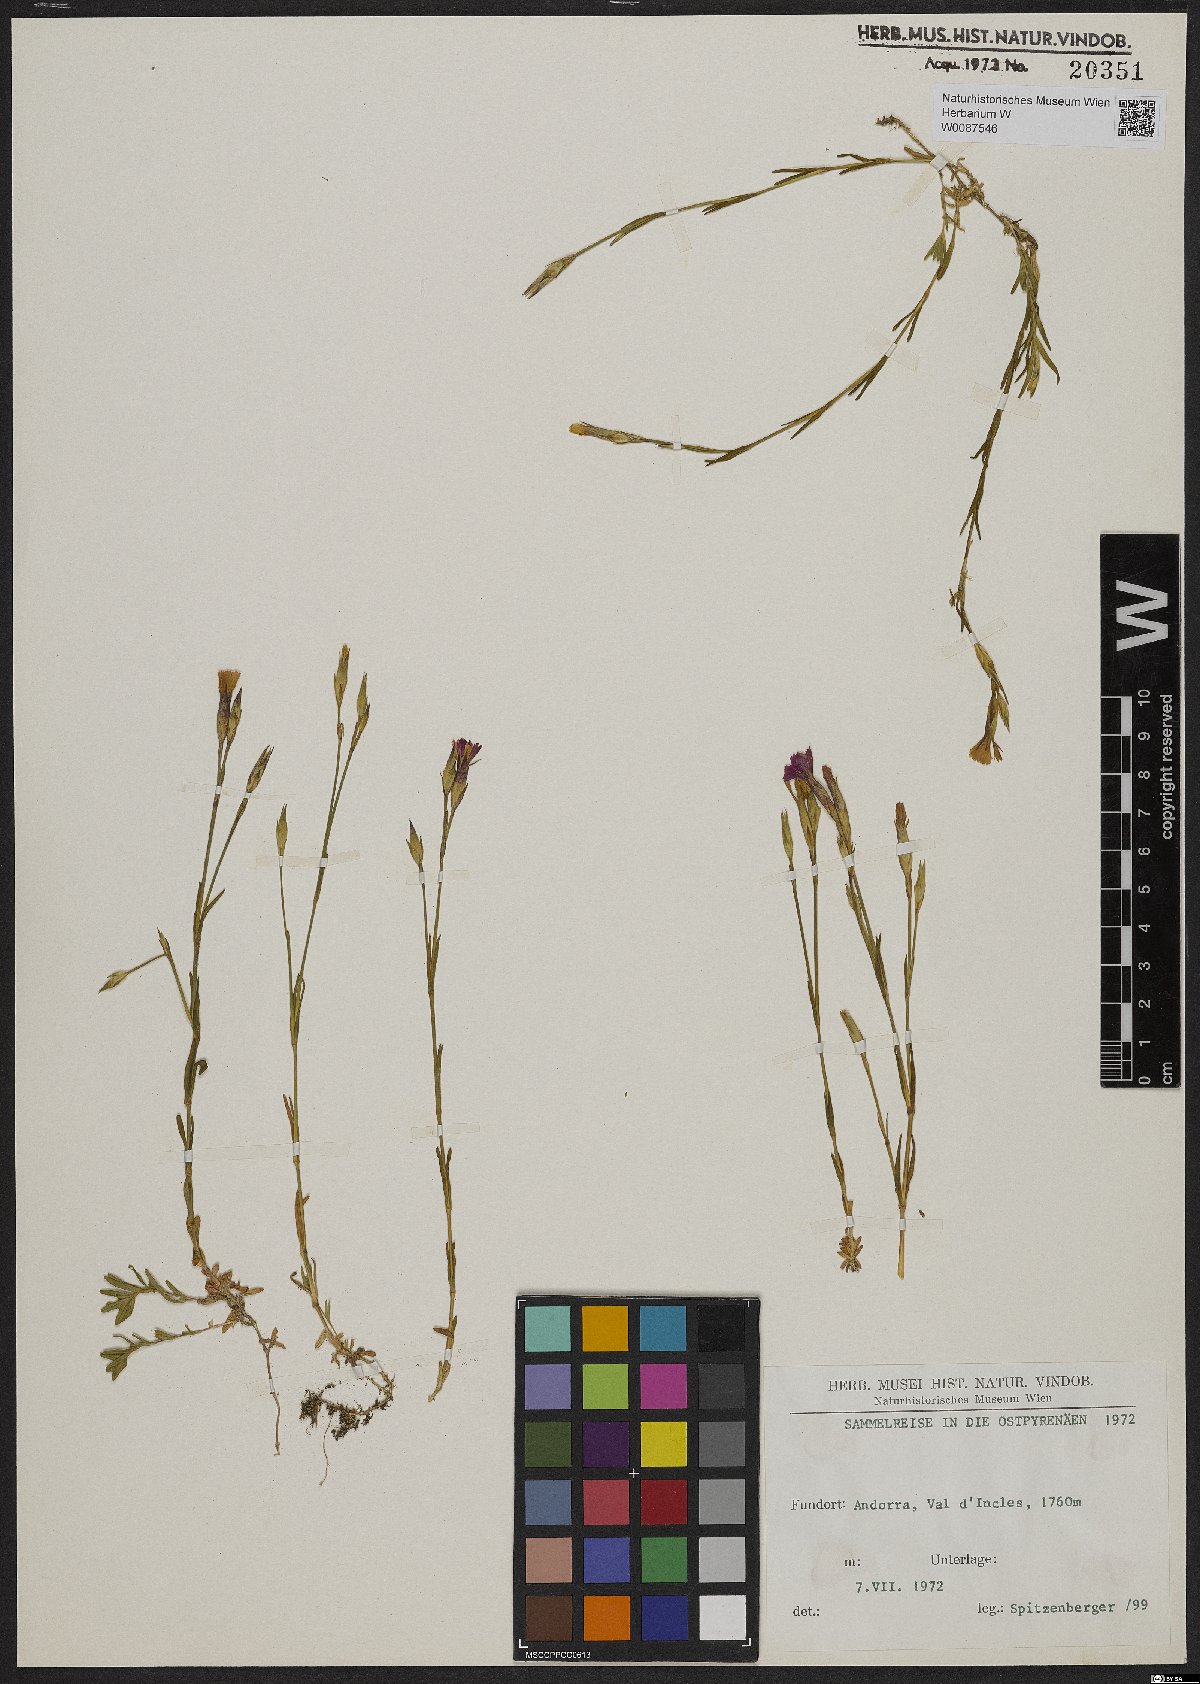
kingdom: Plantae
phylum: Tracheophyta
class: Magnoliopsida
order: Caryophyllales
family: Caryophyllaceae
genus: Dianthus
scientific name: Dianthus deltoides
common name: Maiden pink
